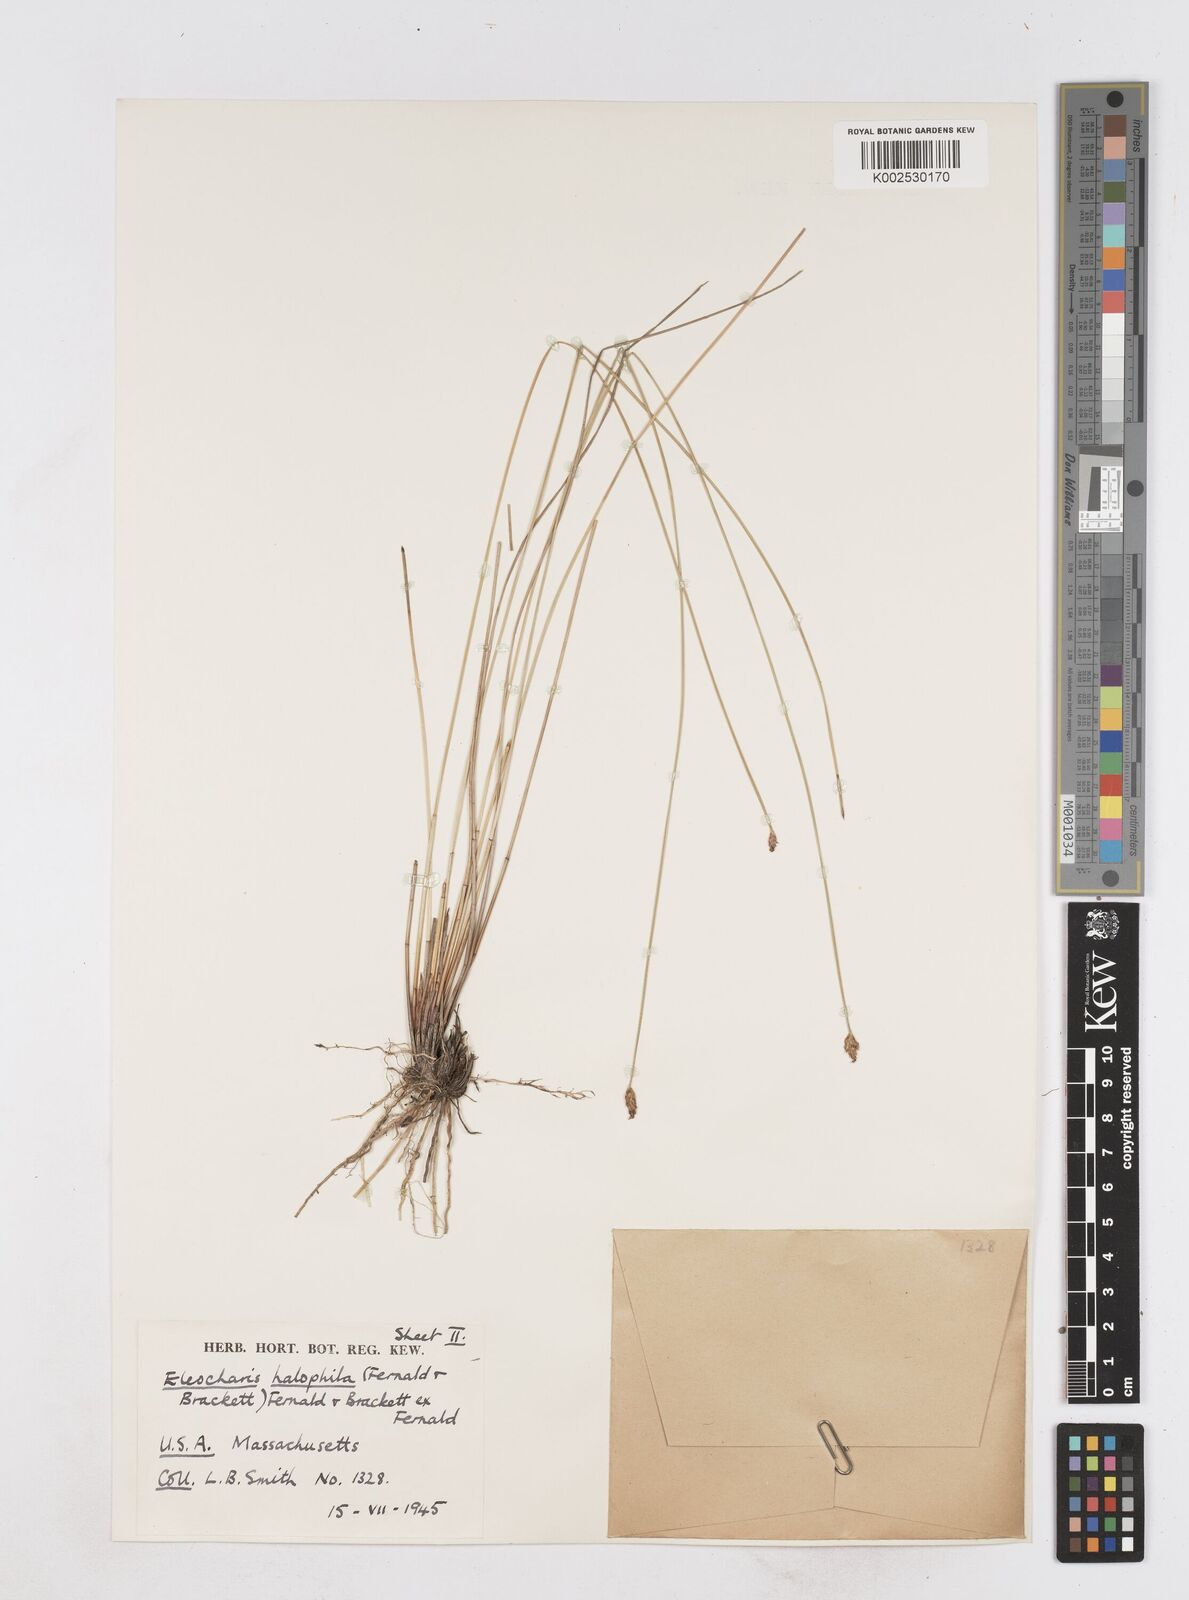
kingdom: Plantae
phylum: Tracheophyta
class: Liliopsida
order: Poales
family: Cyperaceae
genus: Eleocharis
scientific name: Eleocharis uniglumis
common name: Slender spike-rush
